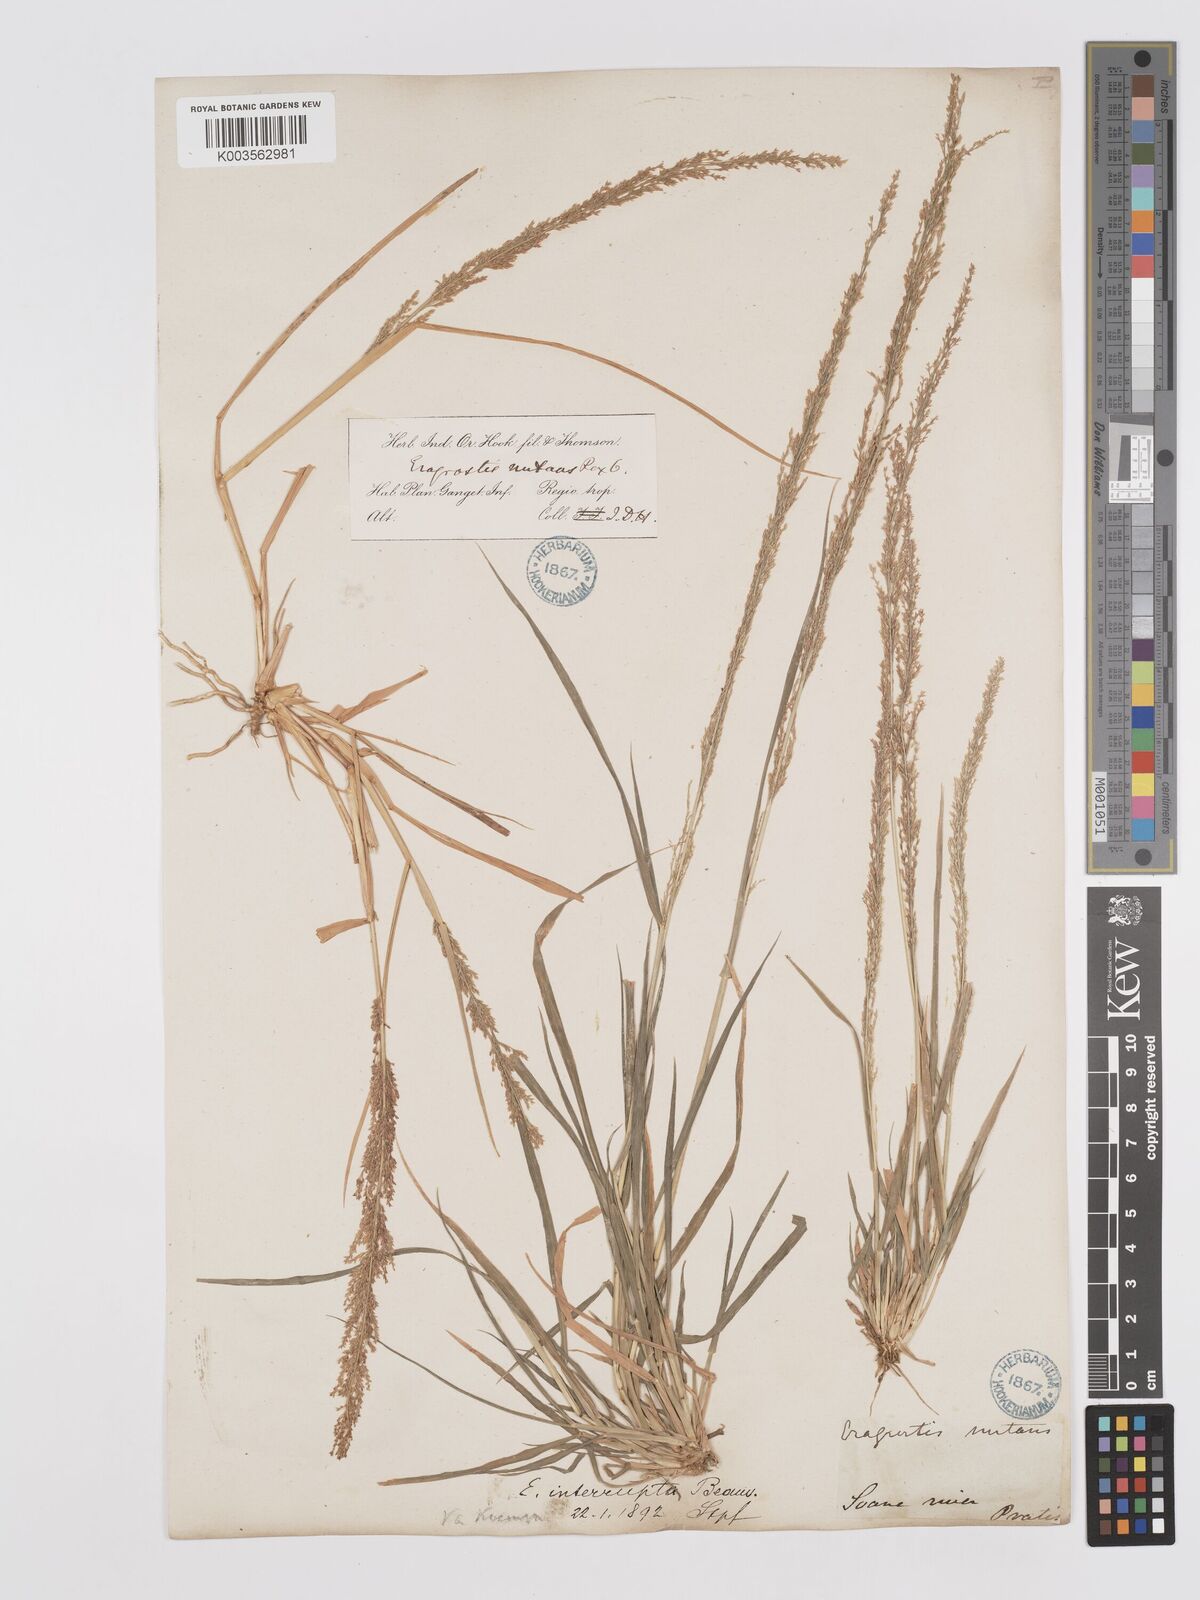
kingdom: Plantae
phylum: Tracheophyta
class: Liliopsida
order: Poales
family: Poaceae
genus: Eragrostis
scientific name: Eragrostis japonica
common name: Pond lovegrass
